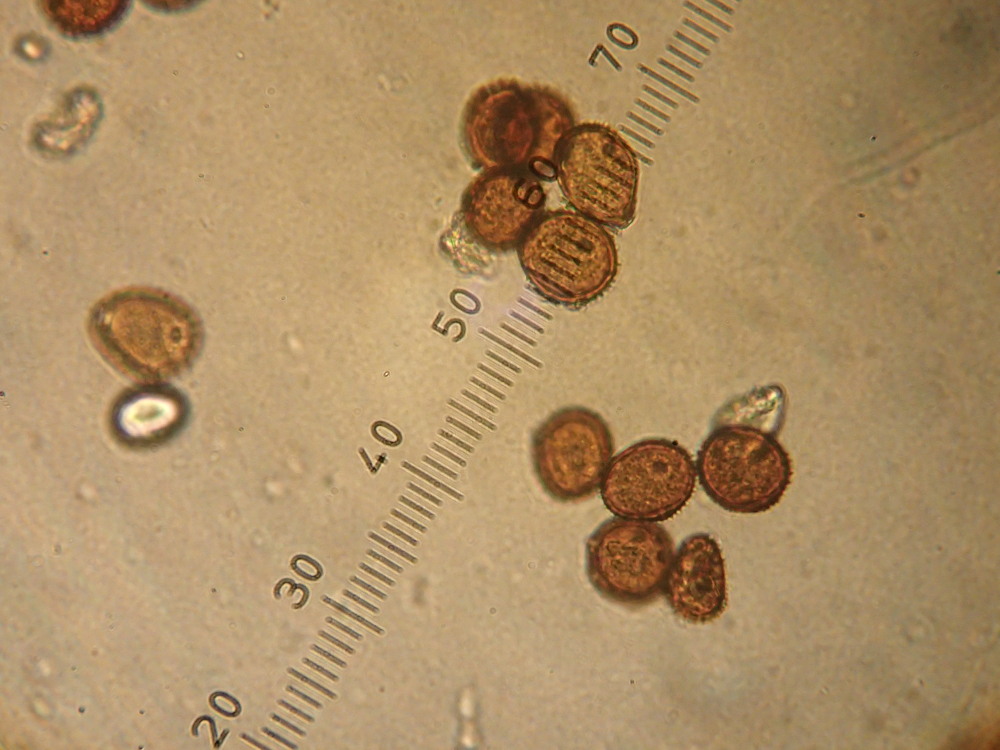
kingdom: Fungi
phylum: Basidiomycota
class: Pucciniomycetes
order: Pucciniales
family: Pucciniaceae
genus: Puccinia
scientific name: Puccinia hieracii
